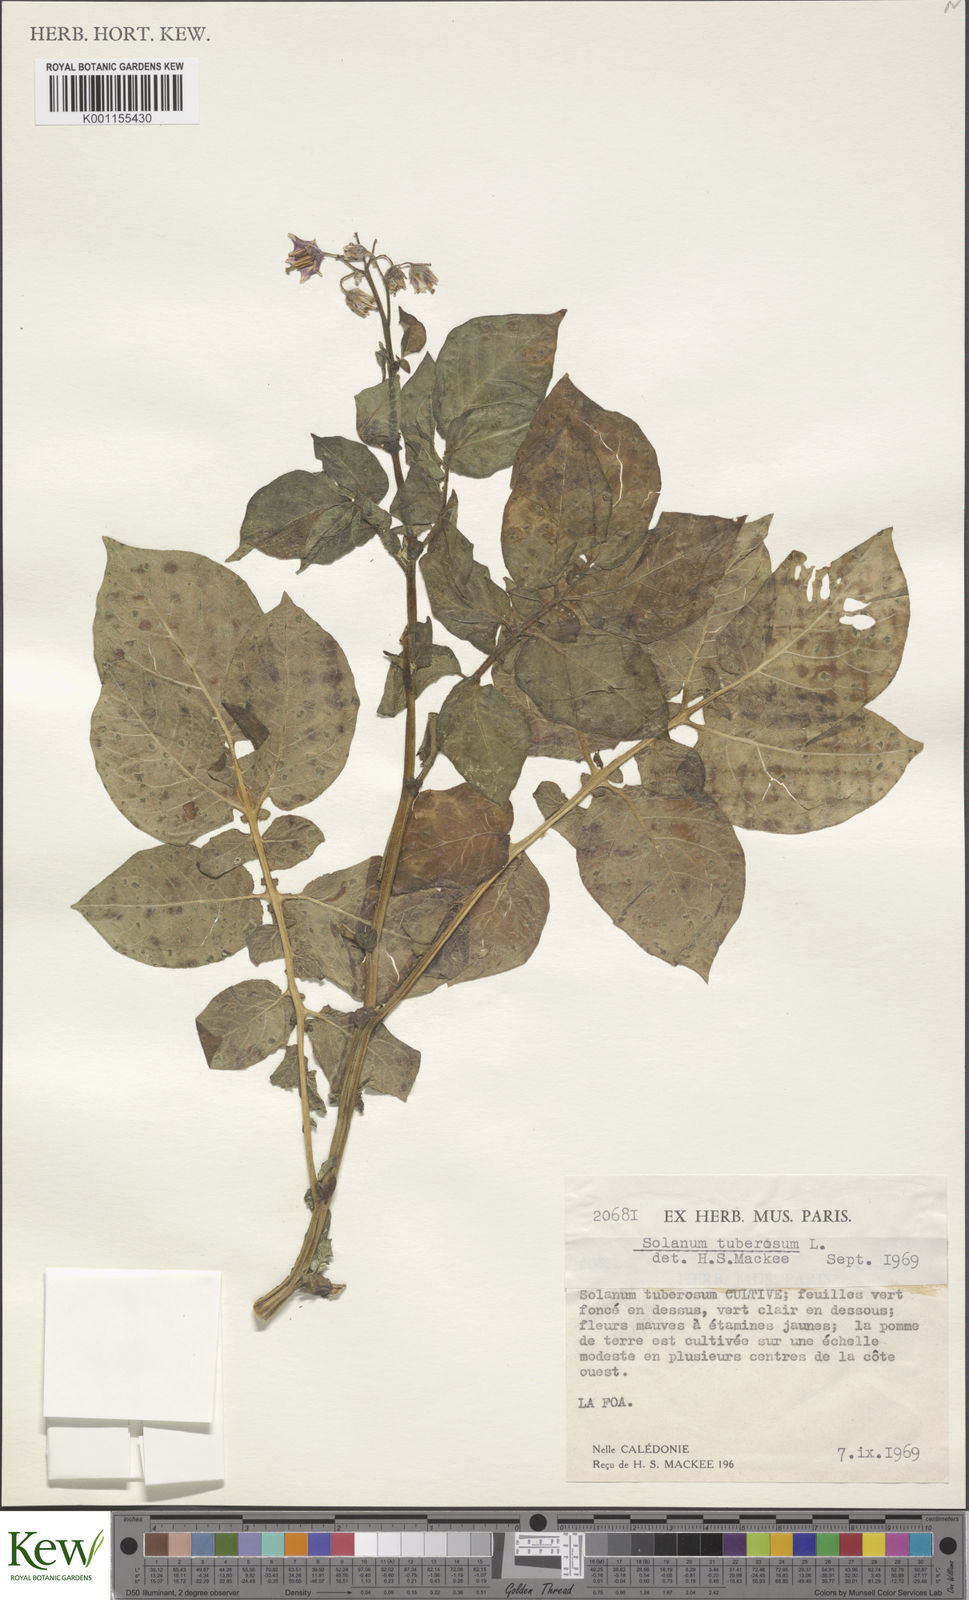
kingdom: Plantae
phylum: Tracheophyta
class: Magnoliopsida
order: Solanales
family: Solanaceae
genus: Solanum
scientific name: Solanum tuberosum
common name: Potato
